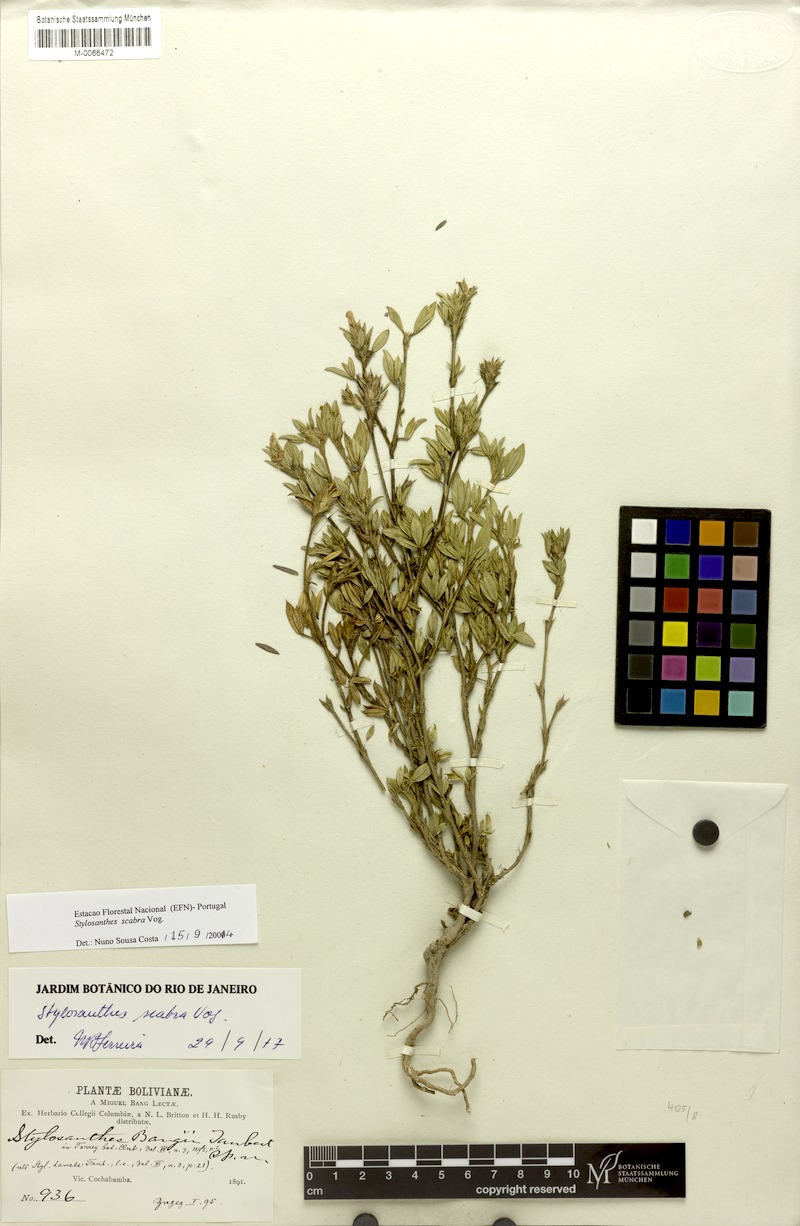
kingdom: Plantae
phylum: Tracheophyta
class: Magnoliopsida
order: Fabales
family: Fabaceae
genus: Stylosanthes
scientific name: Stylosanthes mexicana
